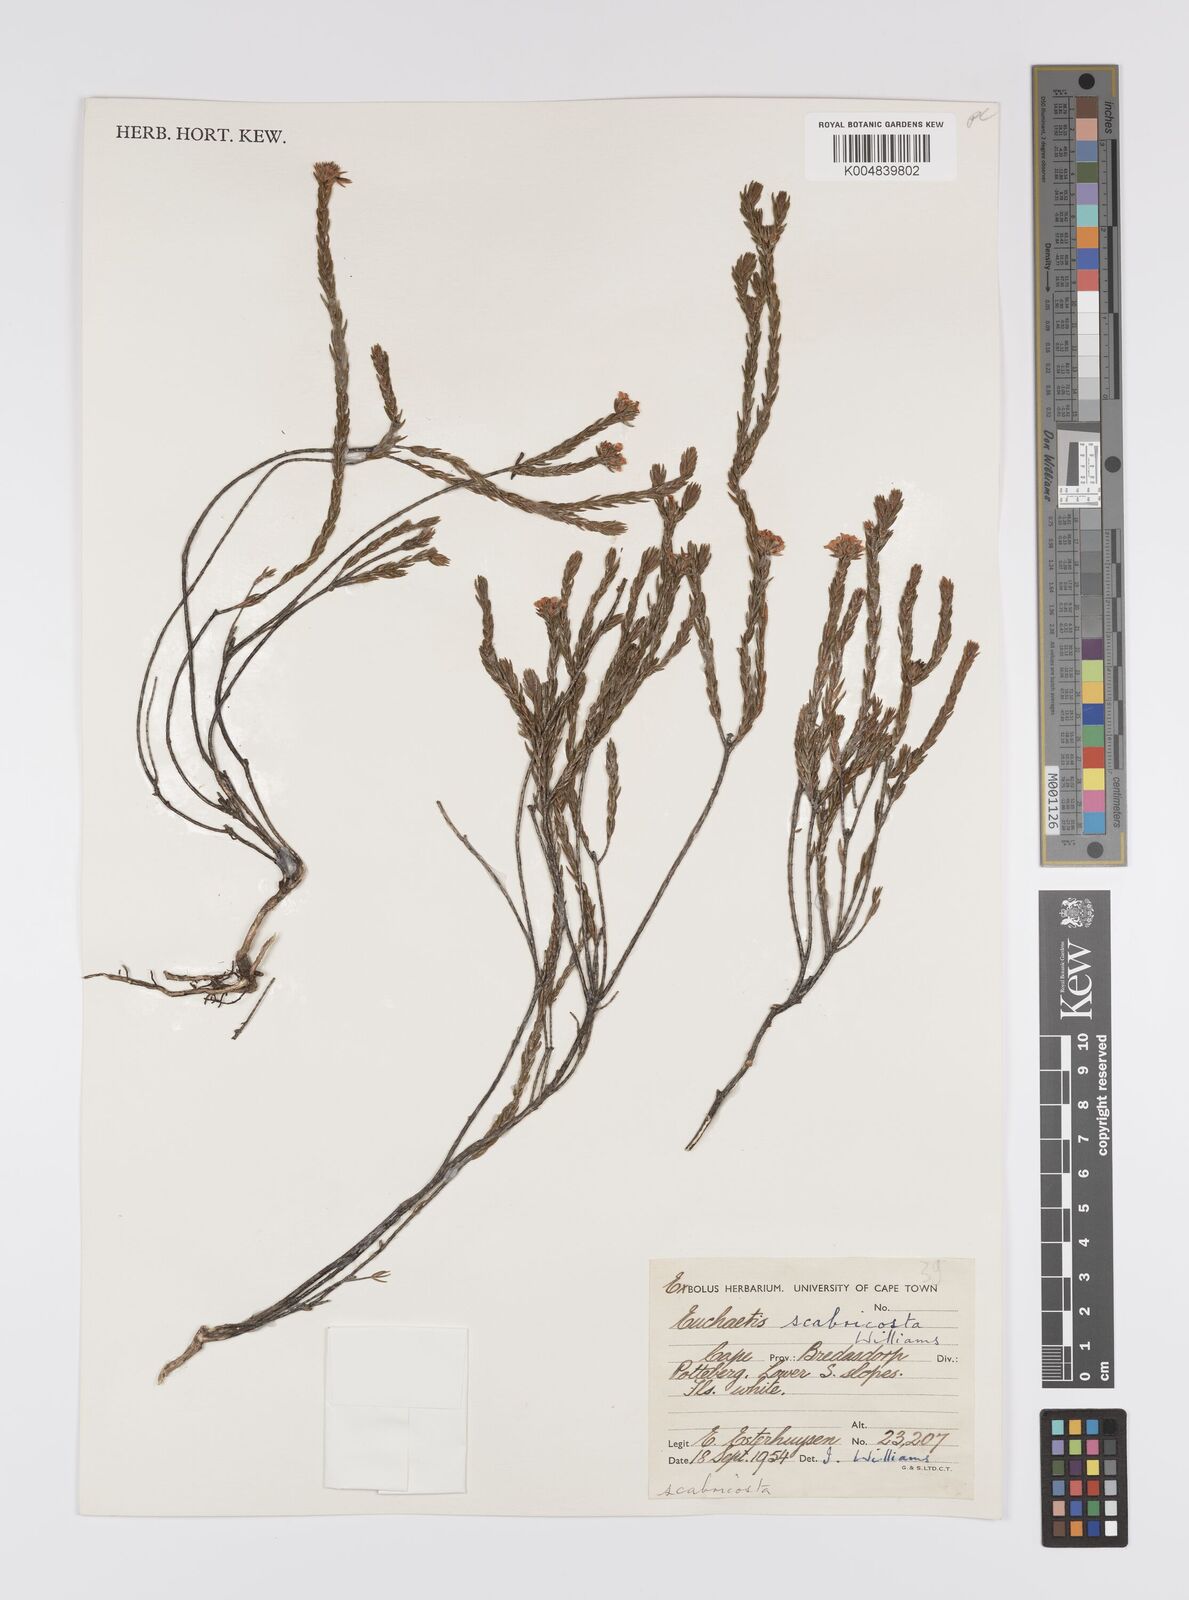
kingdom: Plantae
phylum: Tracheophyta
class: Magnoliopsida
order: Sapindales
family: Rutaceae
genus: Euchaetis
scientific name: Euchaetis scabricosta
